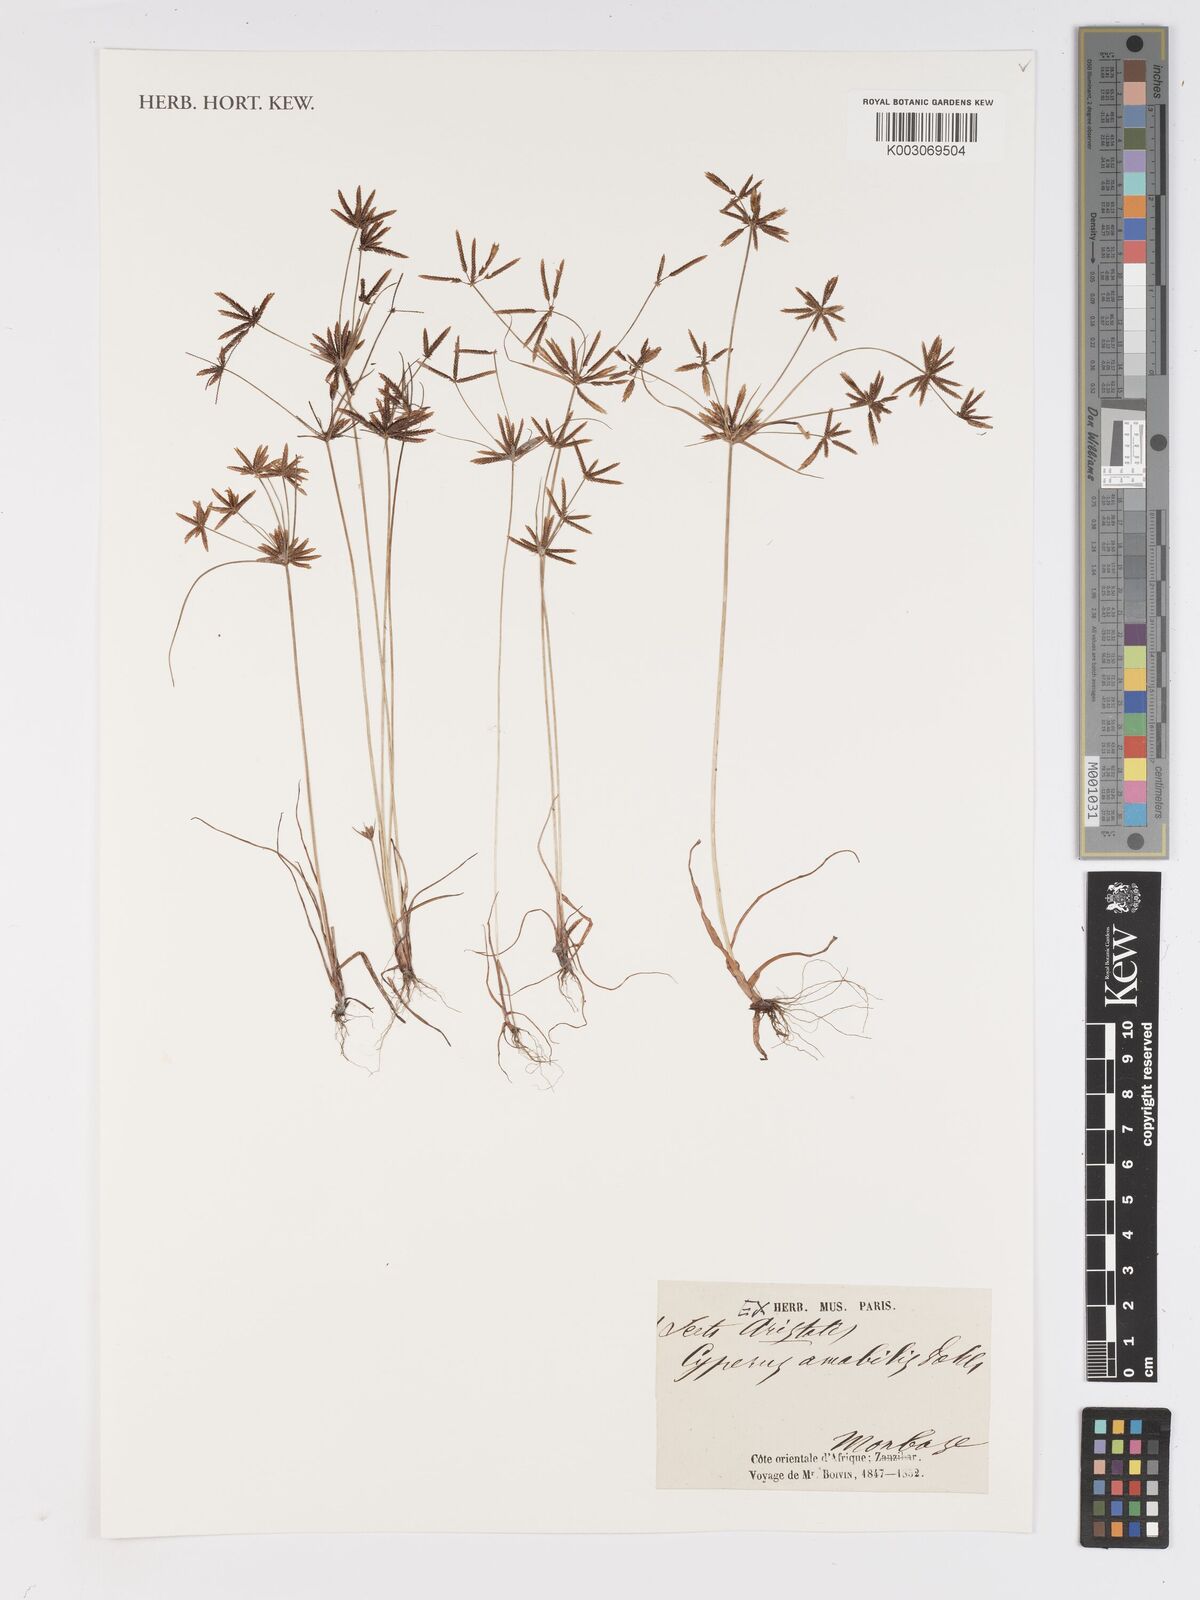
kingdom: Plantae
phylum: Tracheophyta
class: Liliopsida
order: Poales
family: Cyperaceae
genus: Cyperus
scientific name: Cyperus amabilis
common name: Foothill flat sedge
